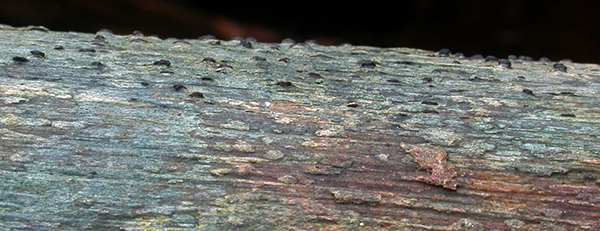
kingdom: Fungi
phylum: Ascomycota
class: Dothideomycetes
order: Pleosporales
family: Lophiostomataceae
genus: Lophiostoma
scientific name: Lophiostoma viridarium
